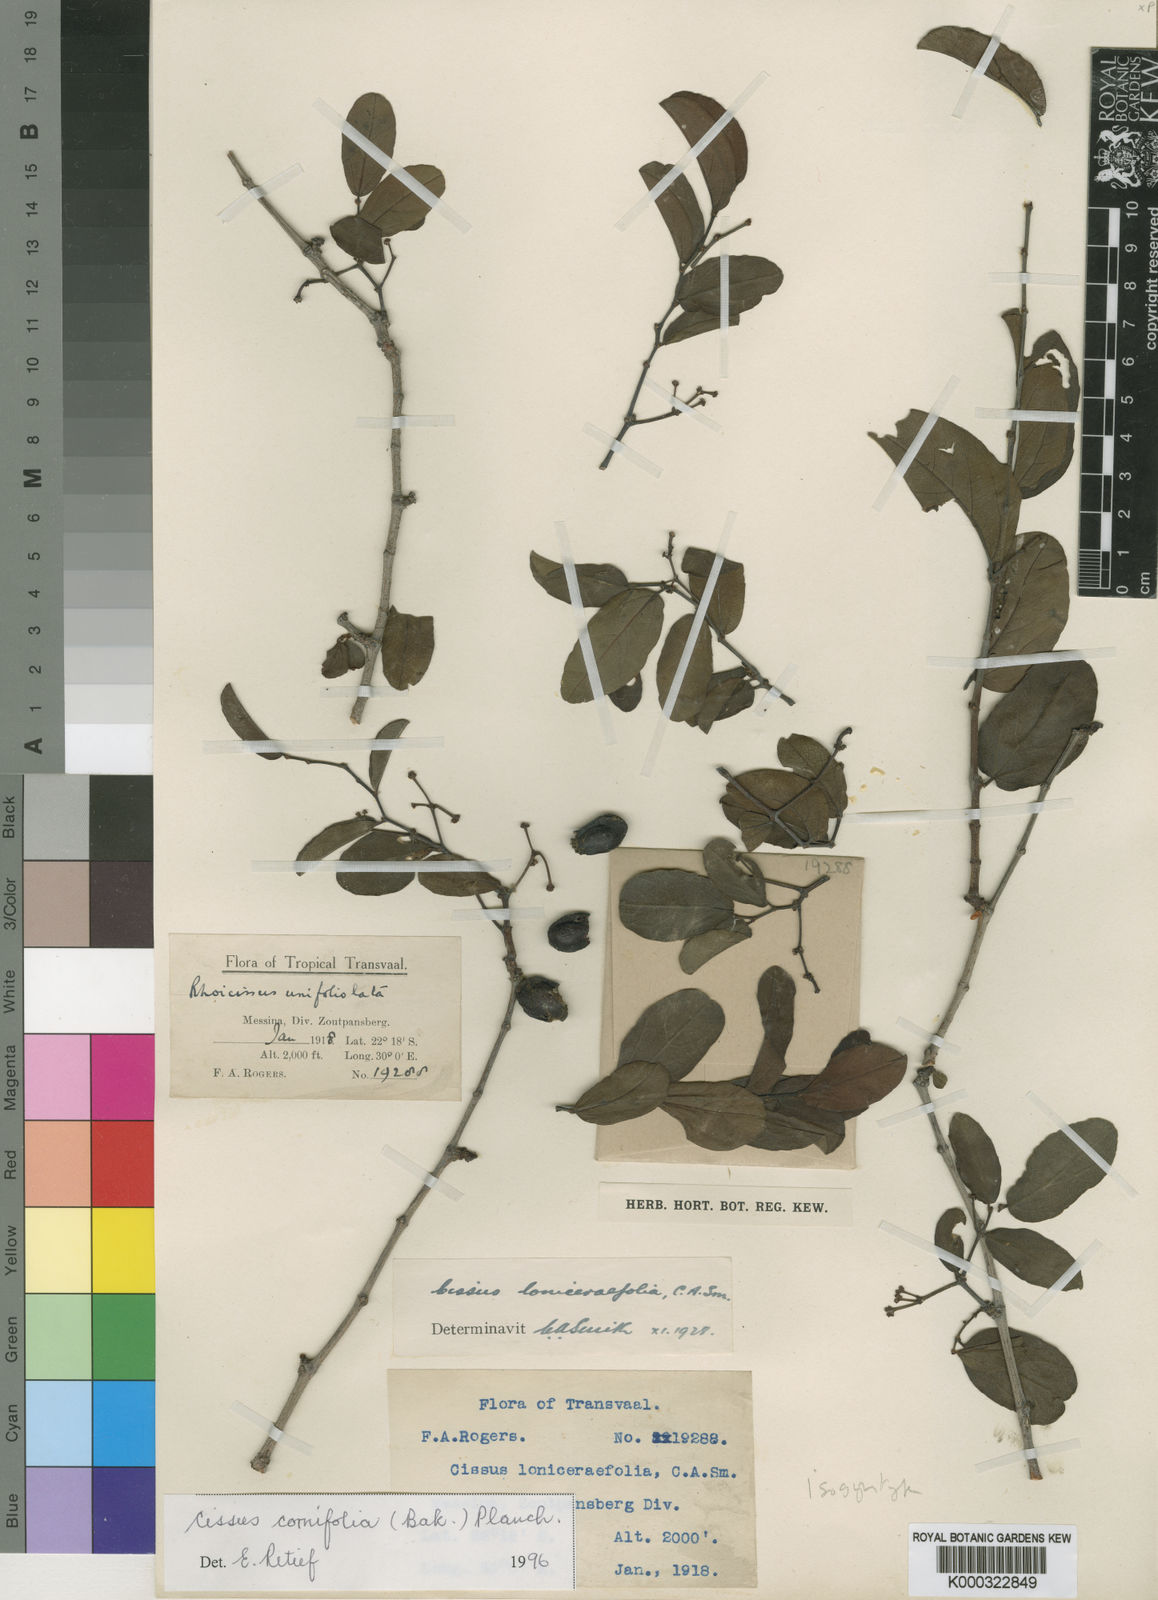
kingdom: Plantae
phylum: Tracheophyta
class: Magnoliopsida
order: Vitales
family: Vitaceae
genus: Cissus
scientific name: Cissus cornifolia
